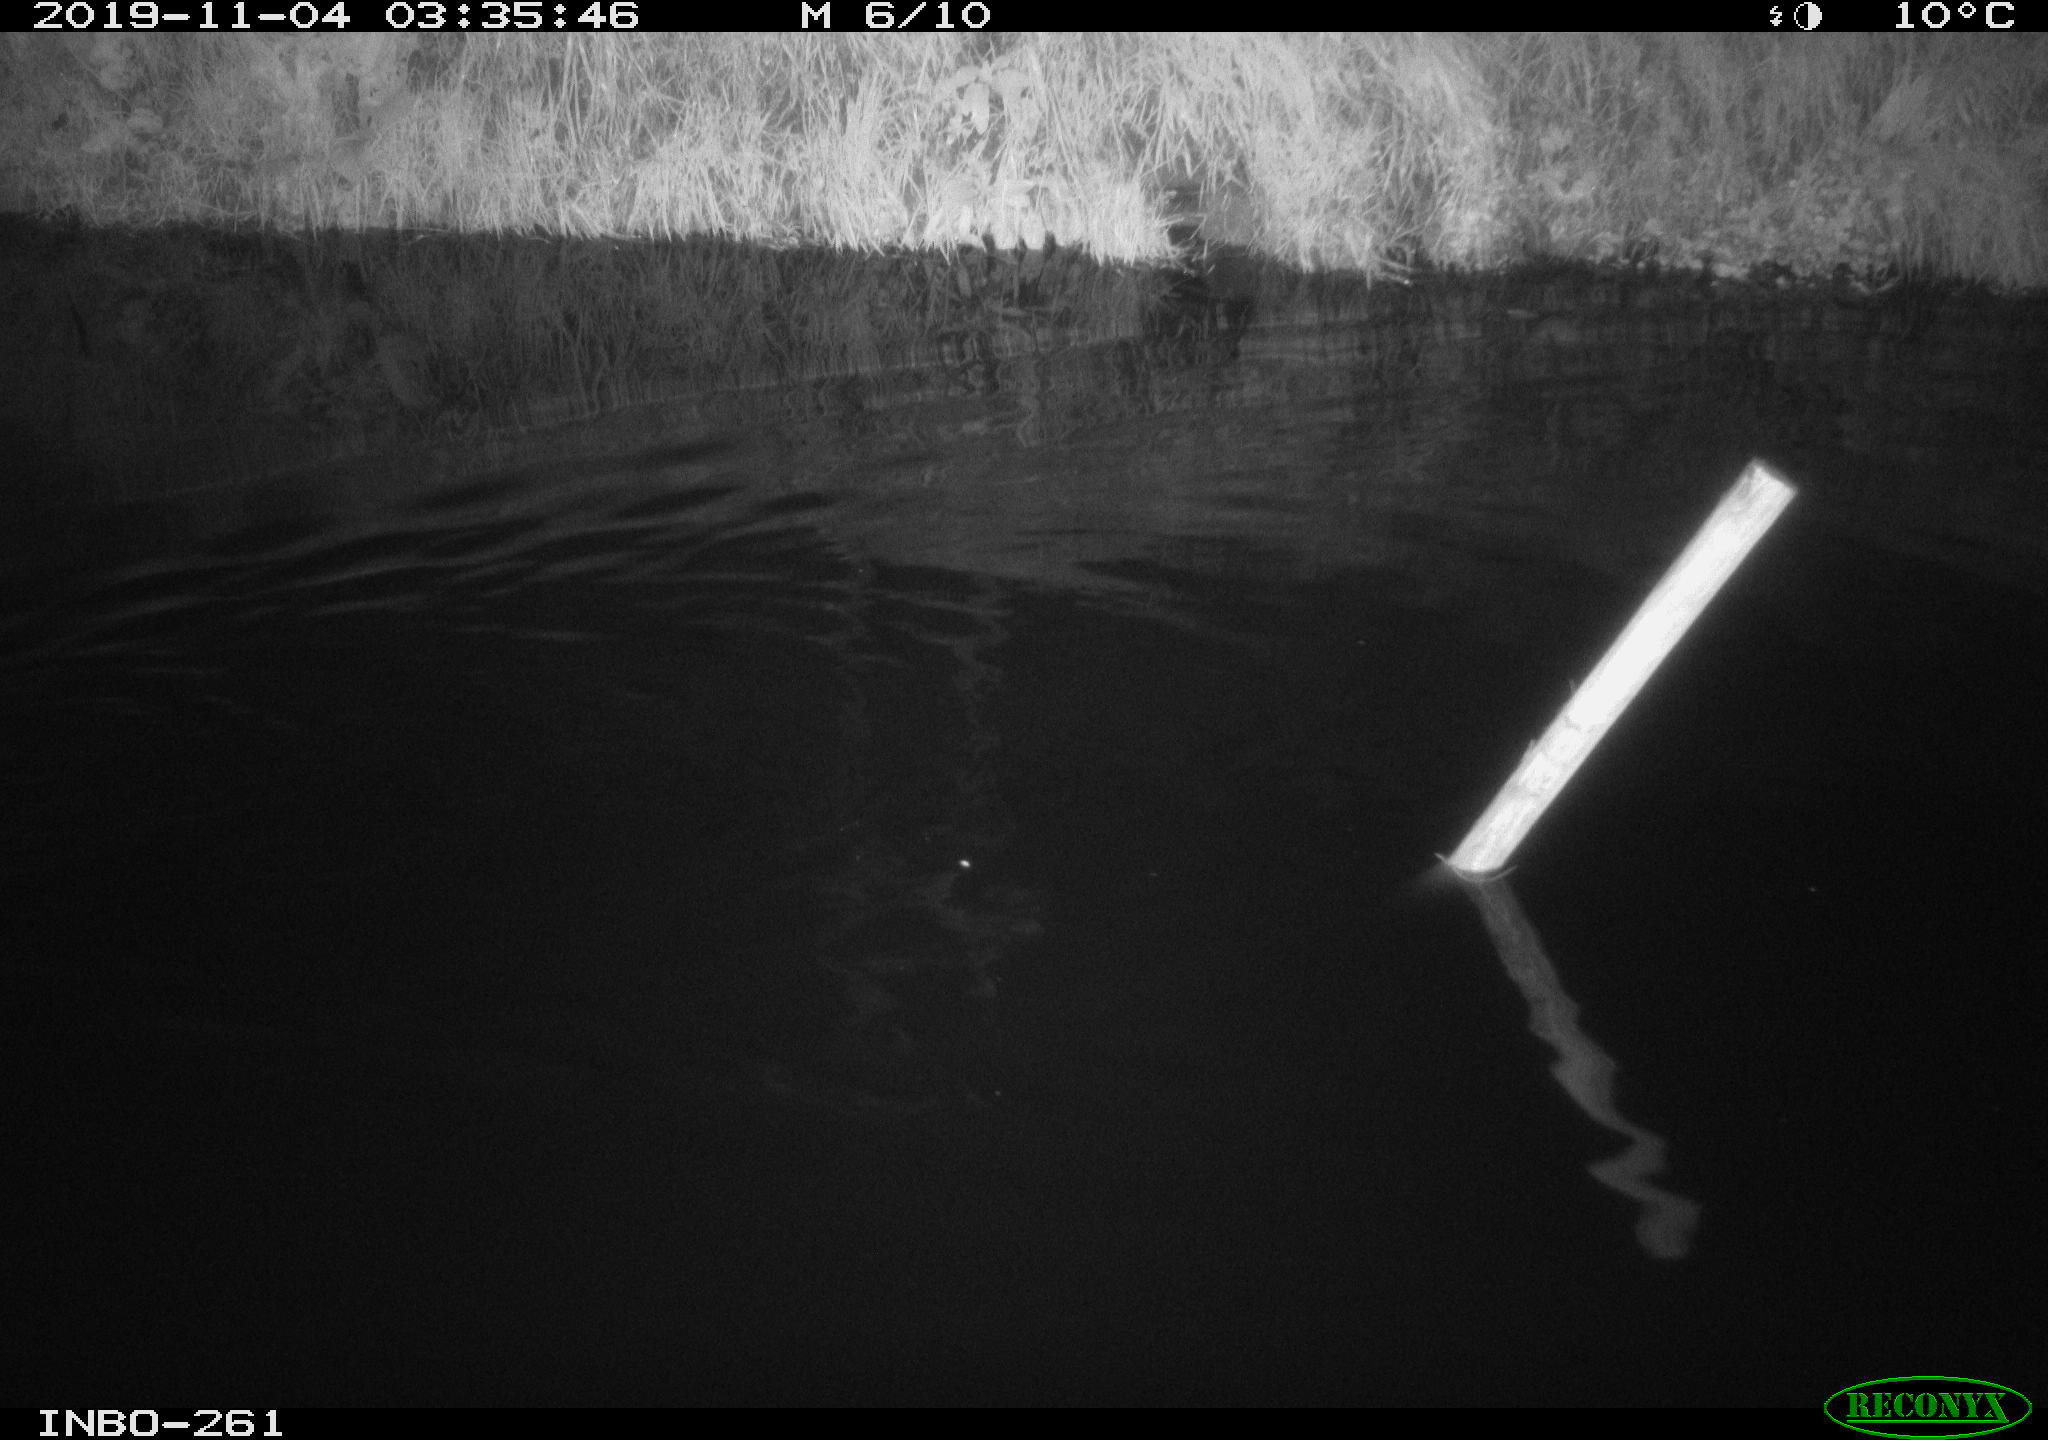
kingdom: Animalia
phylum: Chordata
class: Aves
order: Anseriformes
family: Anatidae
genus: Anas
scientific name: Anas platyrhynchos
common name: Mallard
